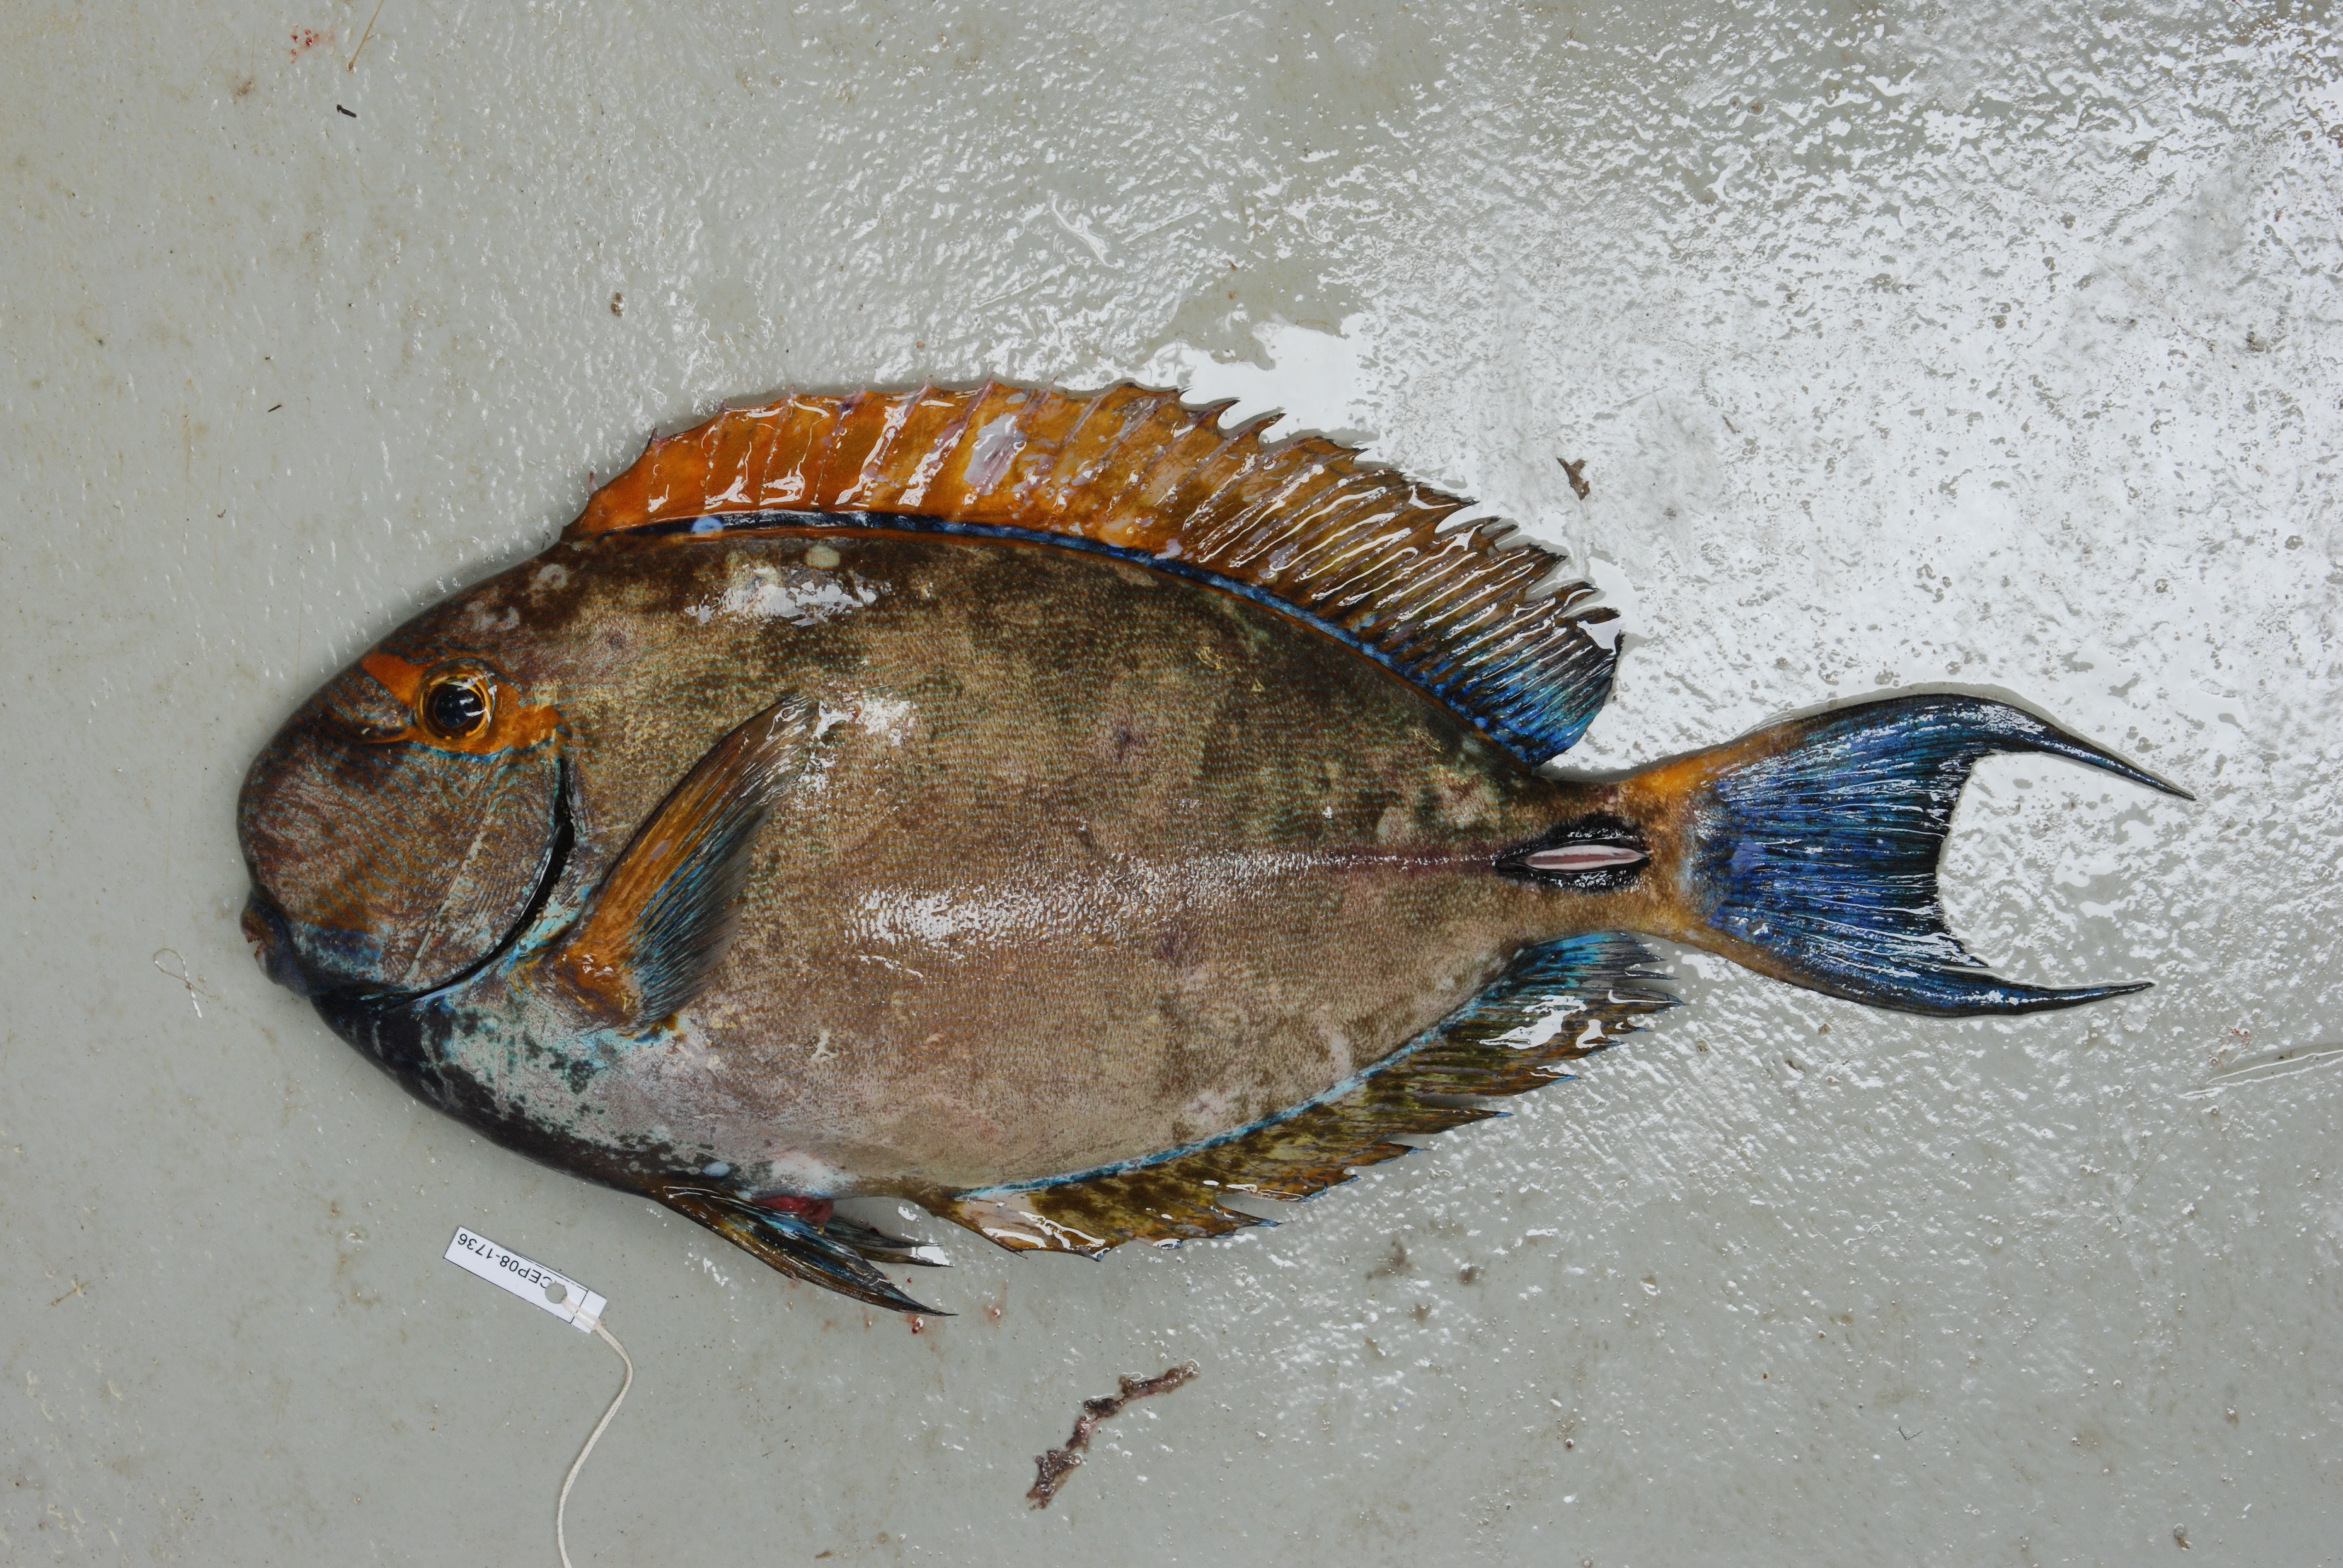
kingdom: Animalia
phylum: Chordata
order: Perciformes
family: Acanthuridae
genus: Acanthurus
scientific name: Acanthurus dussumieri
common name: Dussumier's surgeonfish
